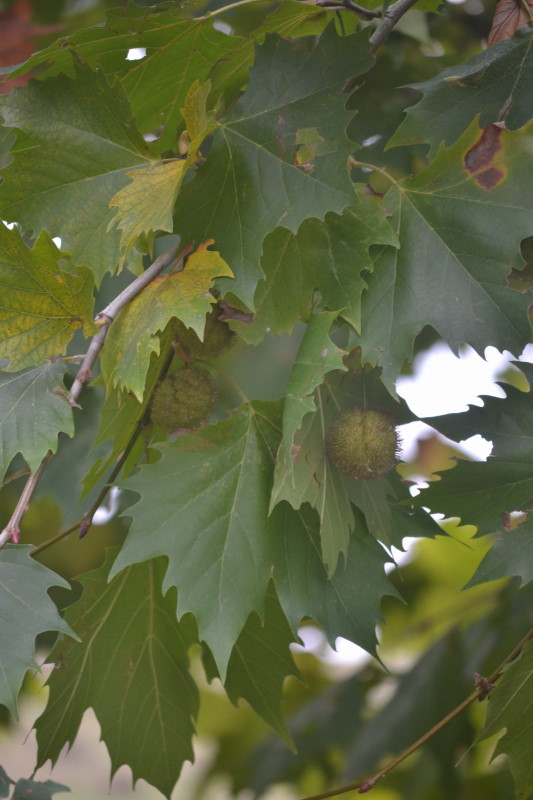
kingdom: Plantae
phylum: Tracheophyta
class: Magnoliopsida
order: Proteales
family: Platanaceae
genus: Platanus
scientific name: Platanus
